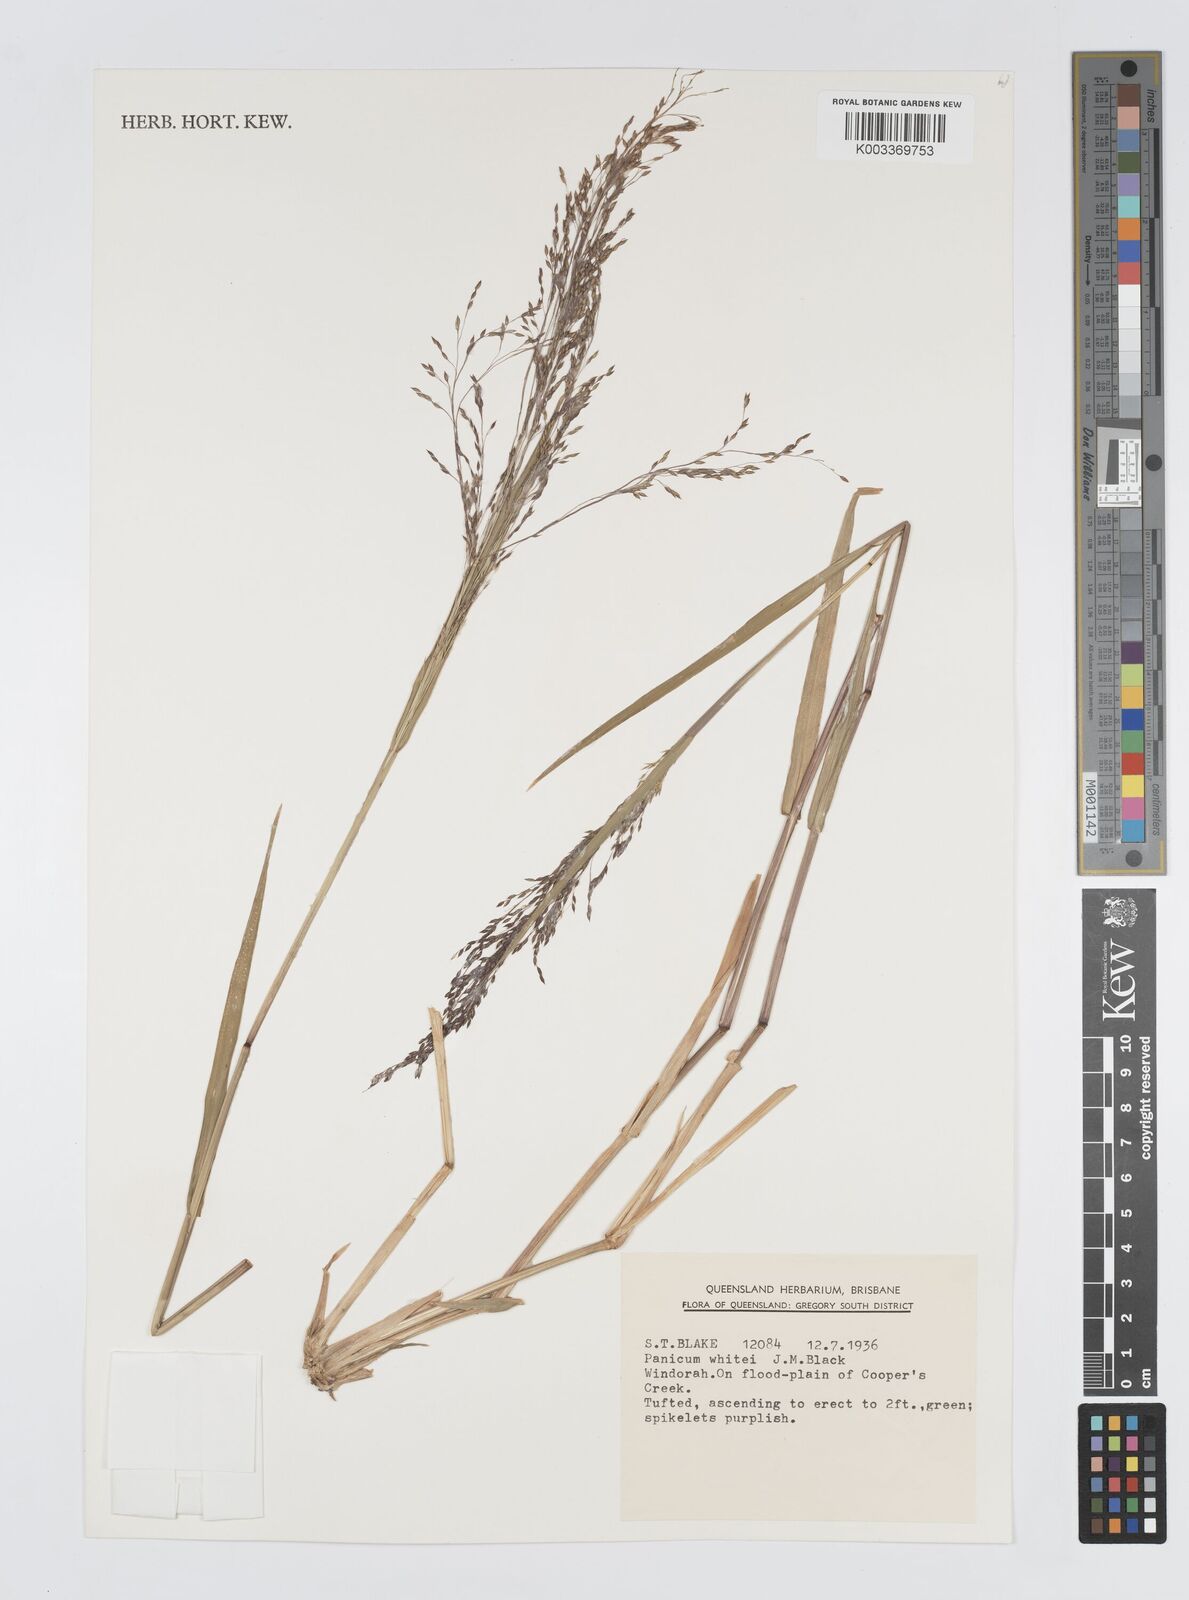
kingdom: Plantae
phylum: Tracheophyta
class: Liliopsida
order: Poales
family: Poaceae
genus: Panicum
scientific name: Panicum laevinode
